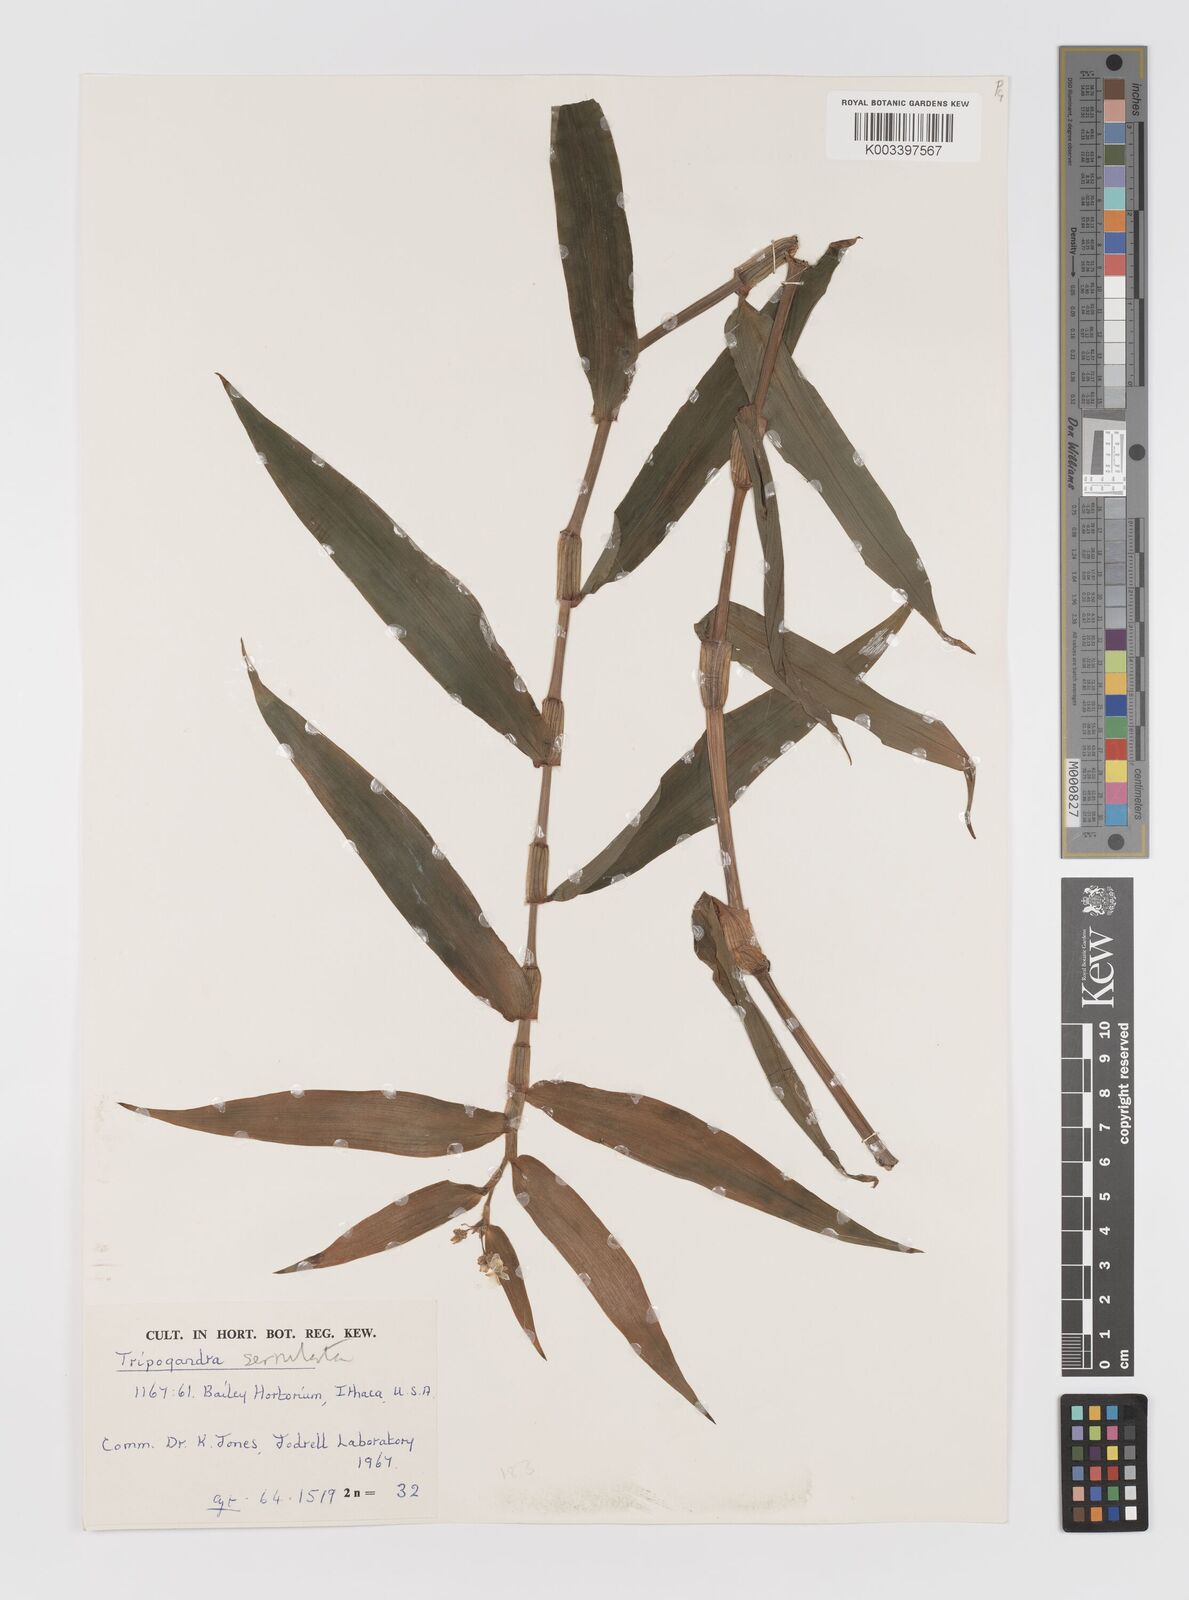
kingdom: Plantae
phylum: Tracheophyta
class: Liliopsida
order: Commelinales
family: Commelinaceae
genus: Callisia
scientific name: Callisia serrulata
